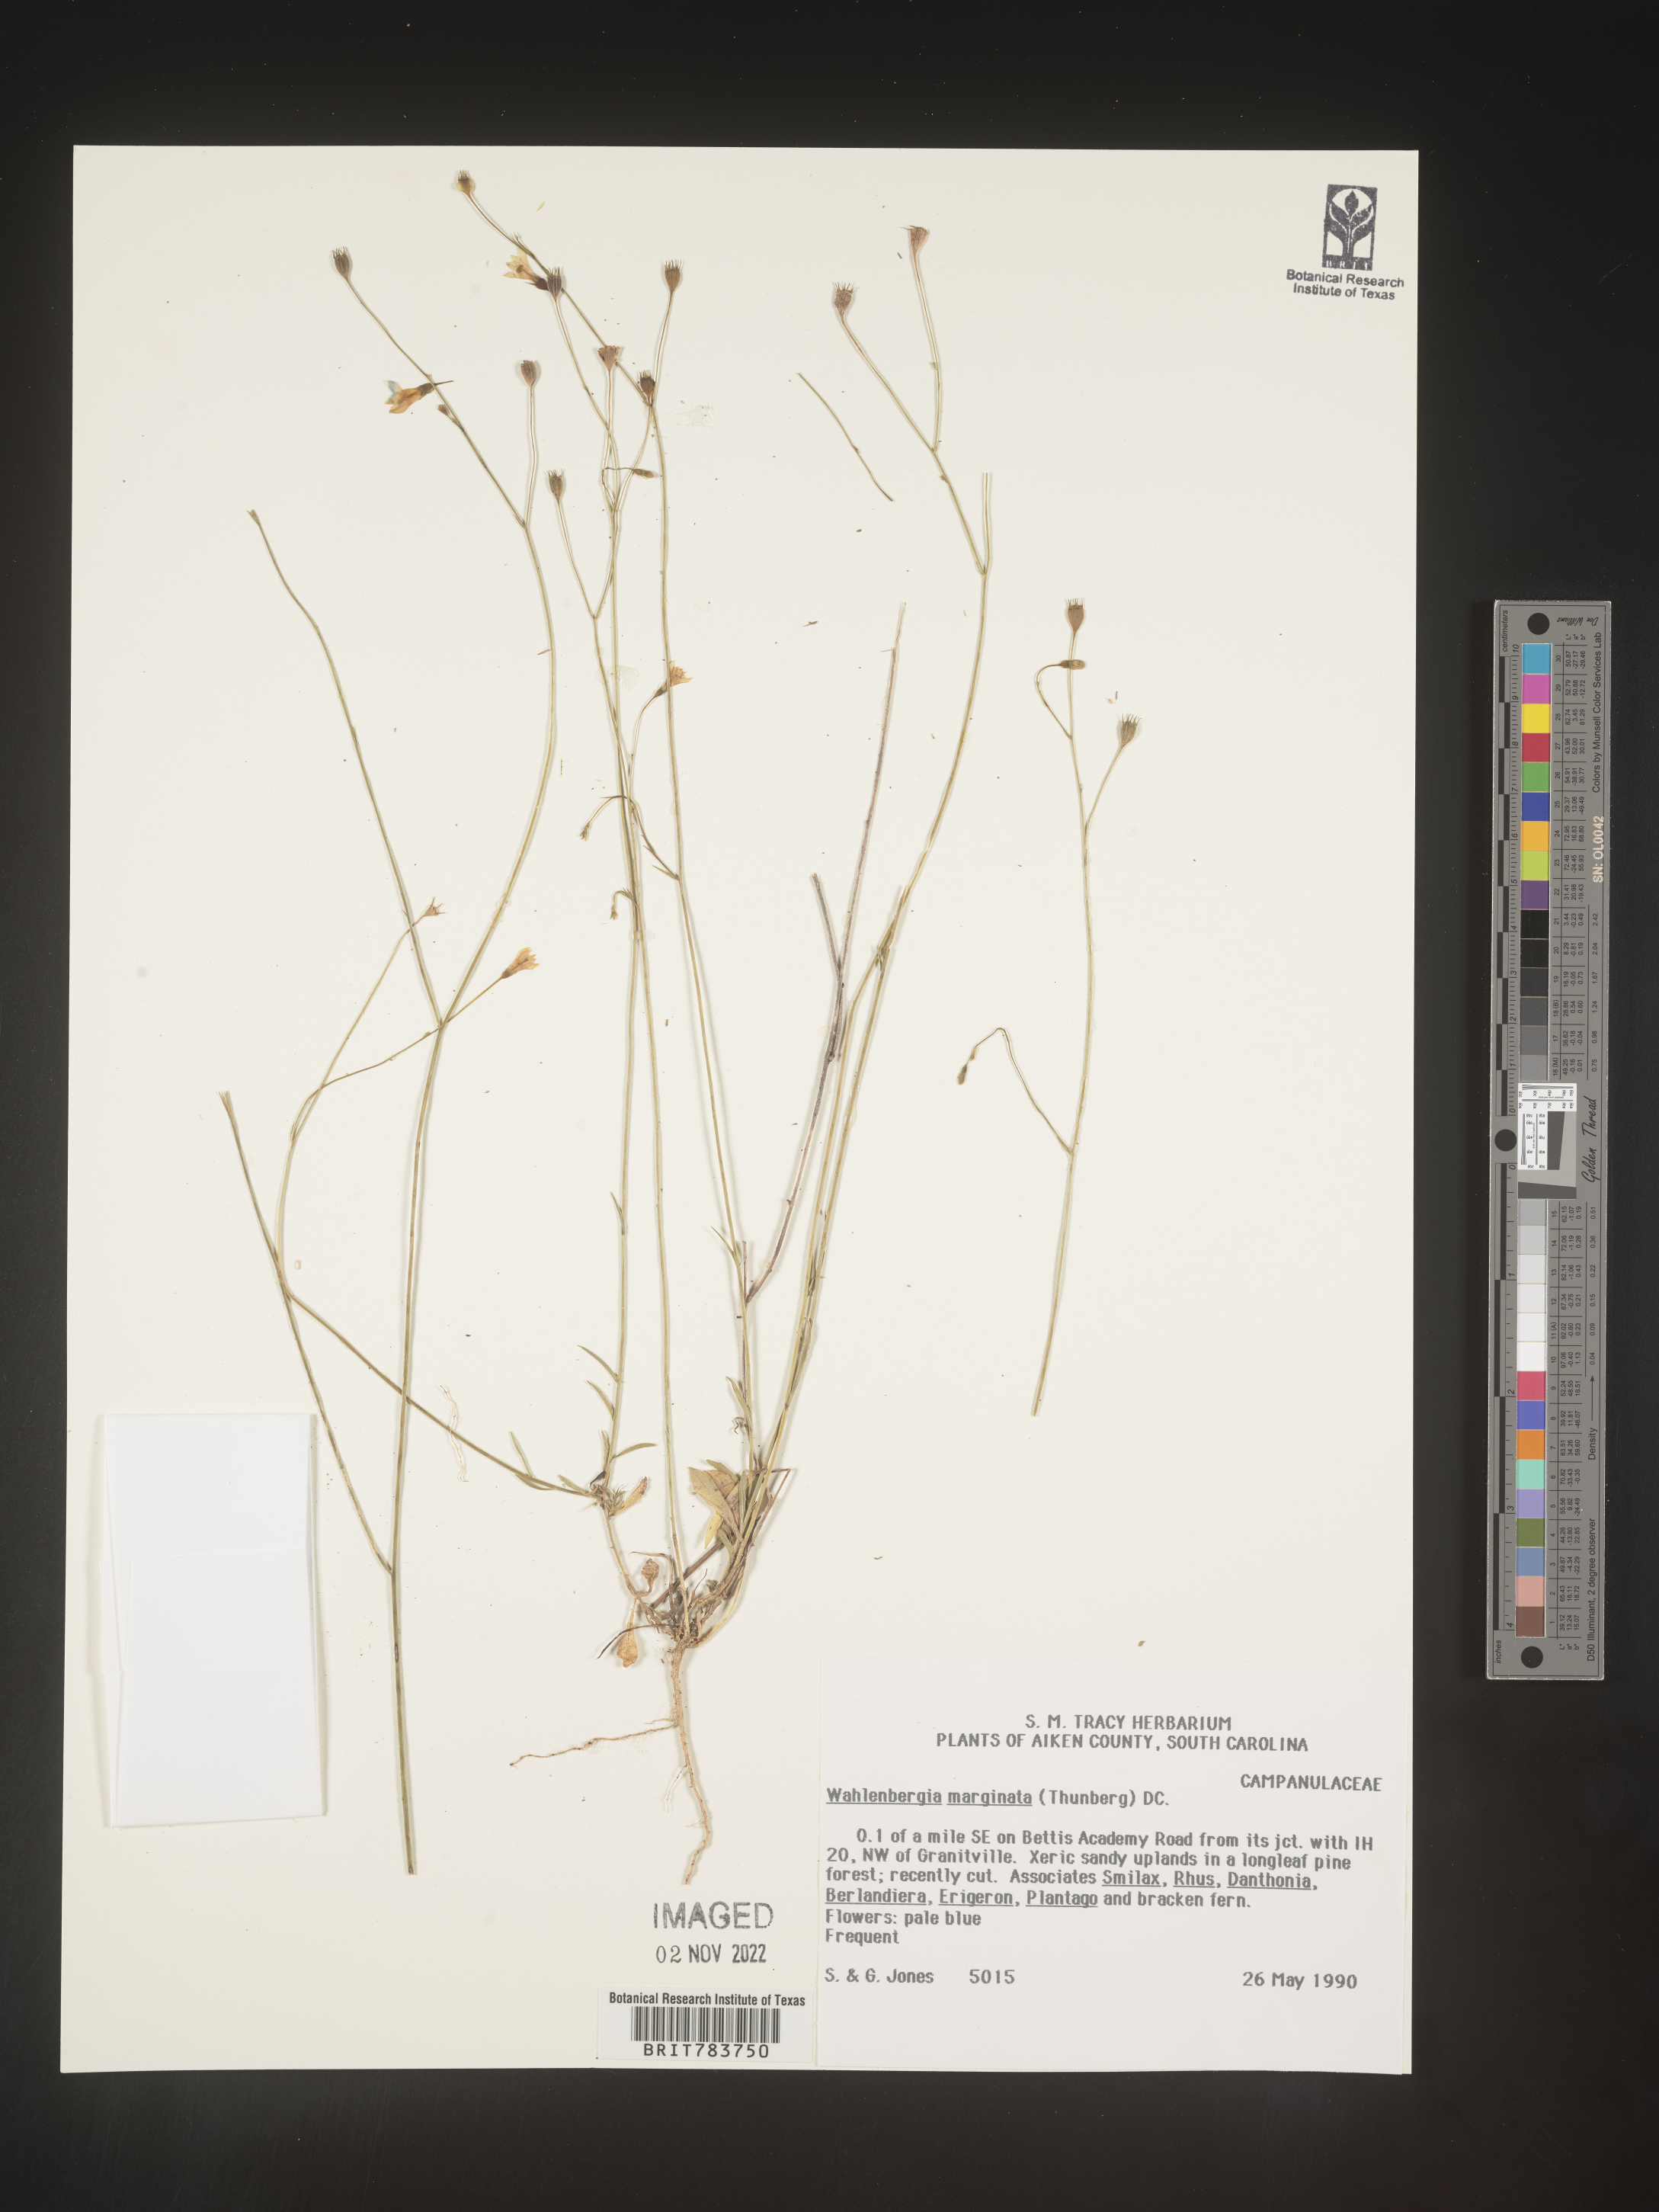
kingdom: Plantae
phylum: Tracheophyta
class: Magnoliopsida
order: Asterales
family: Campanulaceae
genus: Wahlenbergia
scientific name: Wahlenbergia marginata
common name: Southern rockbell
